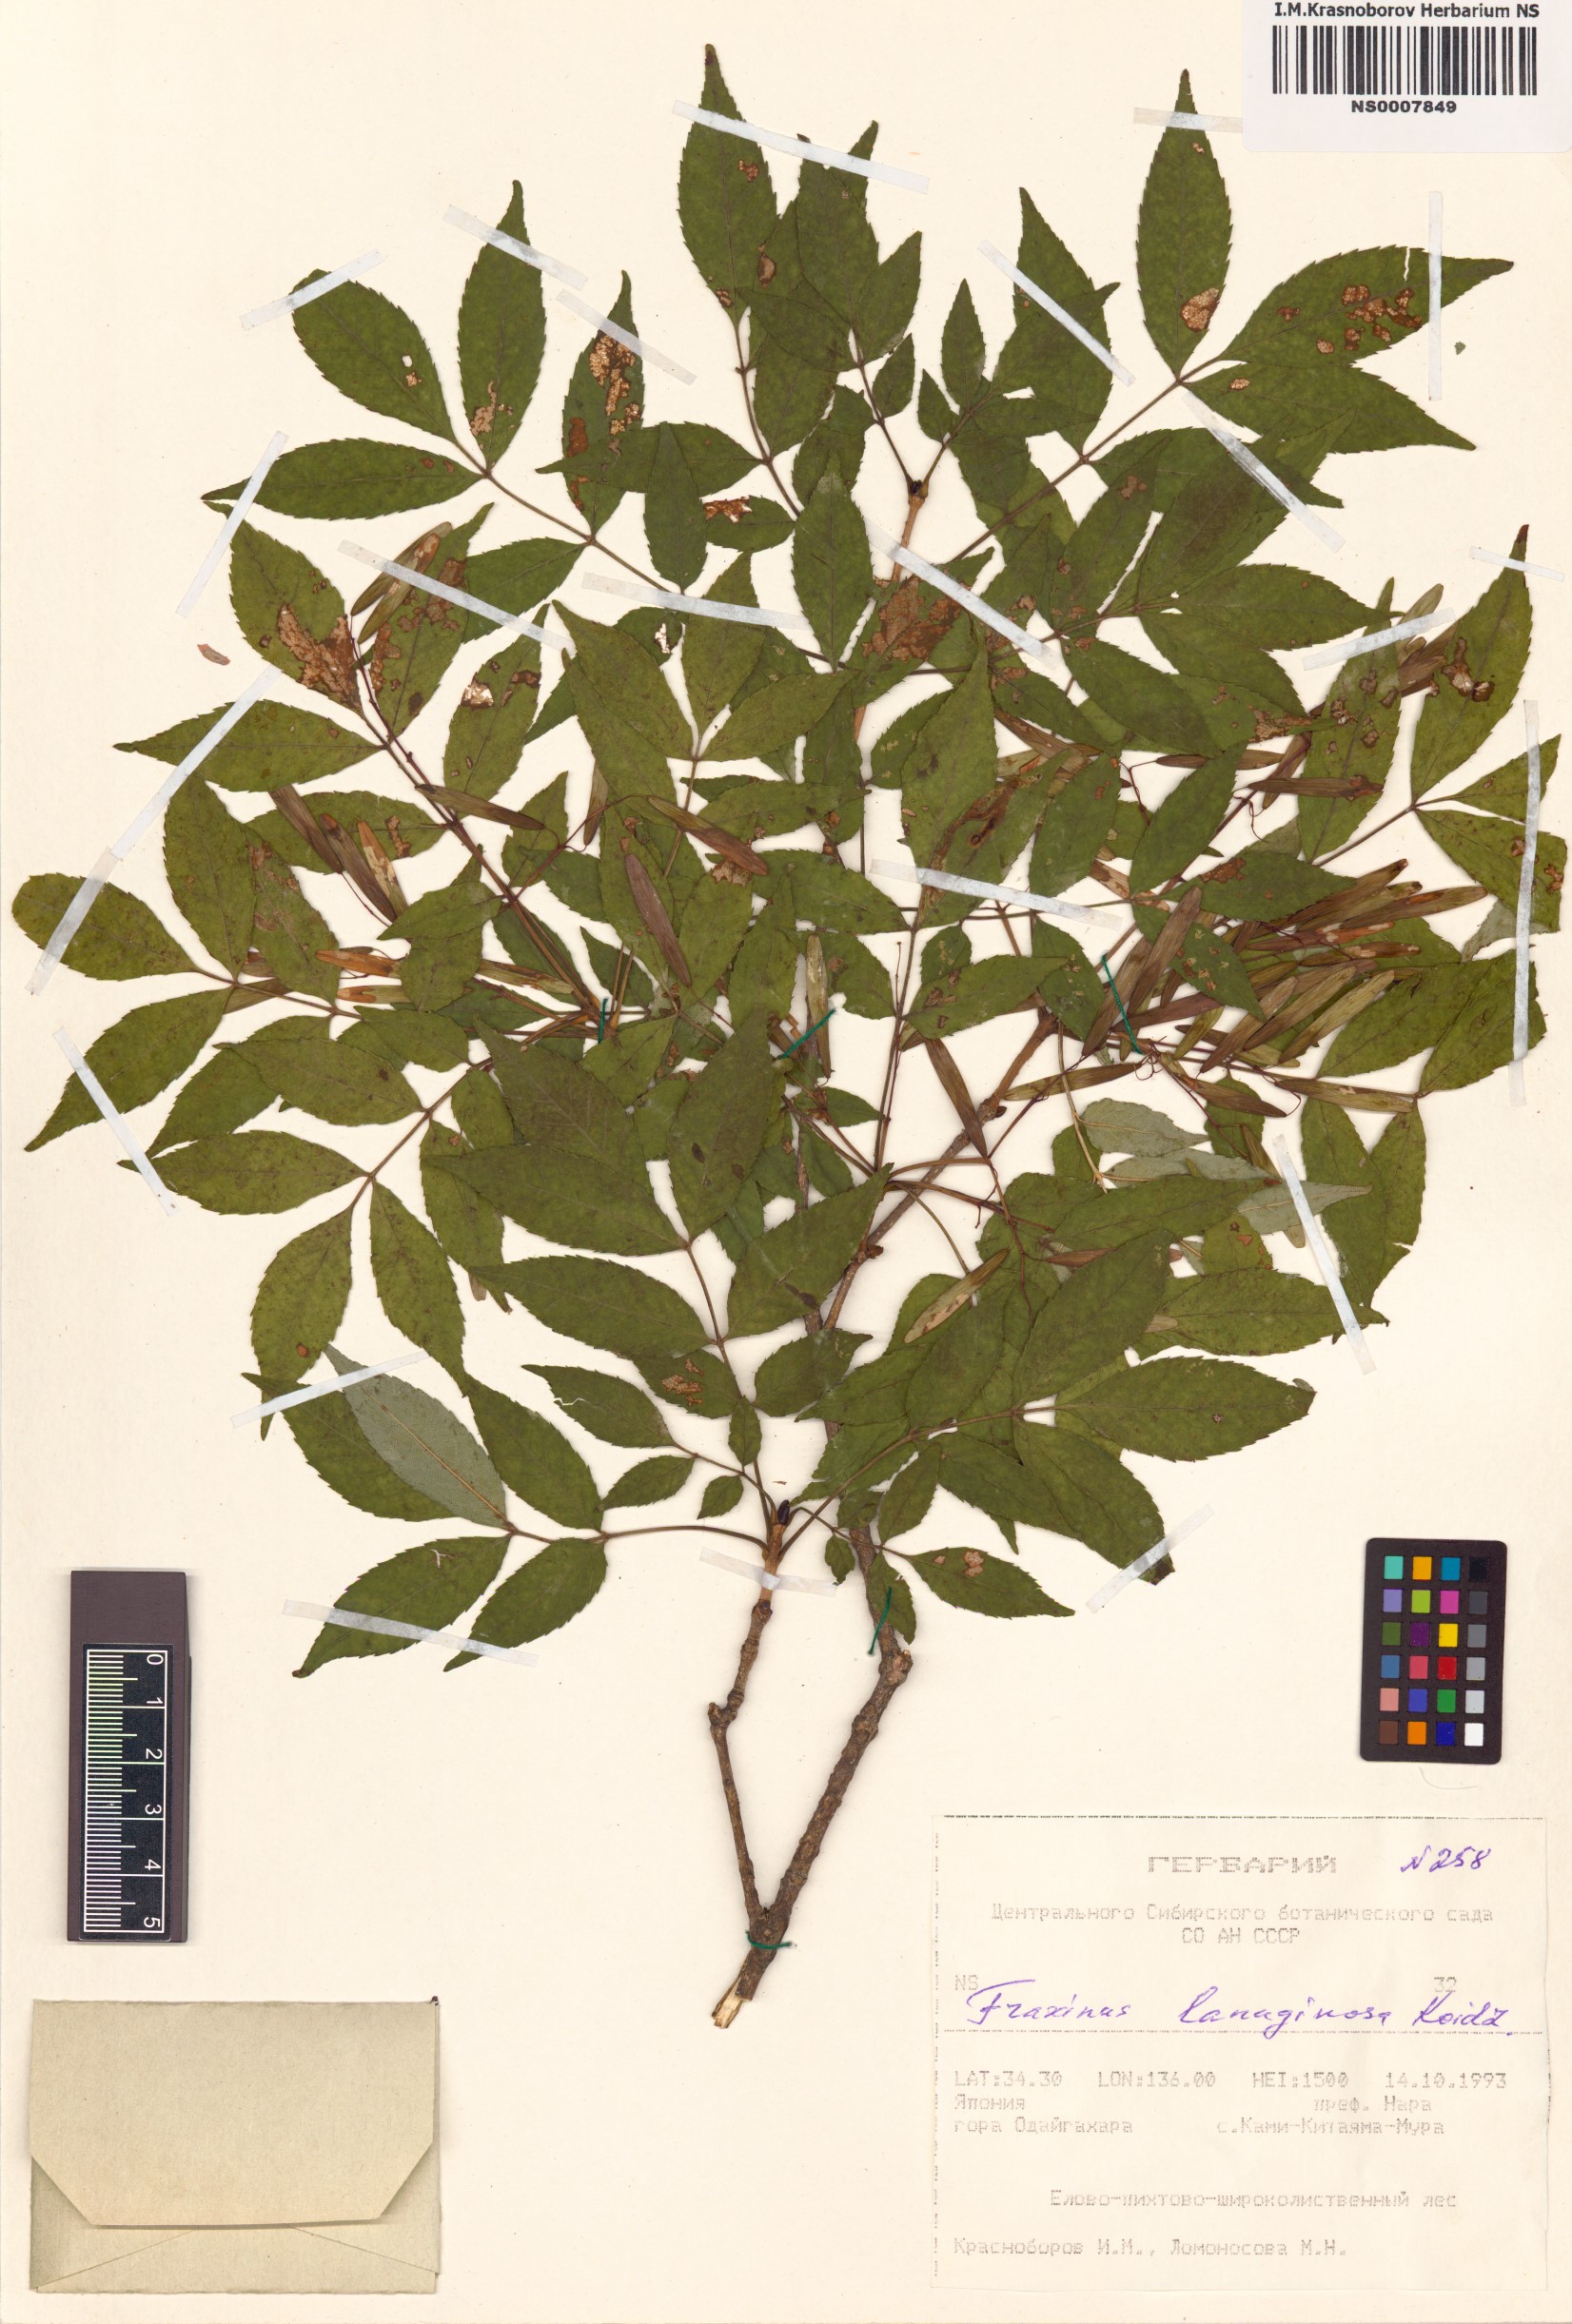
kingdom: Plantae
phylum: Tracheophyta
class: Magnoliopsida
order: Lamiales
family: Oleaceae
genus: Fraxinus
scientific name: Fraxinus lanuginosa
